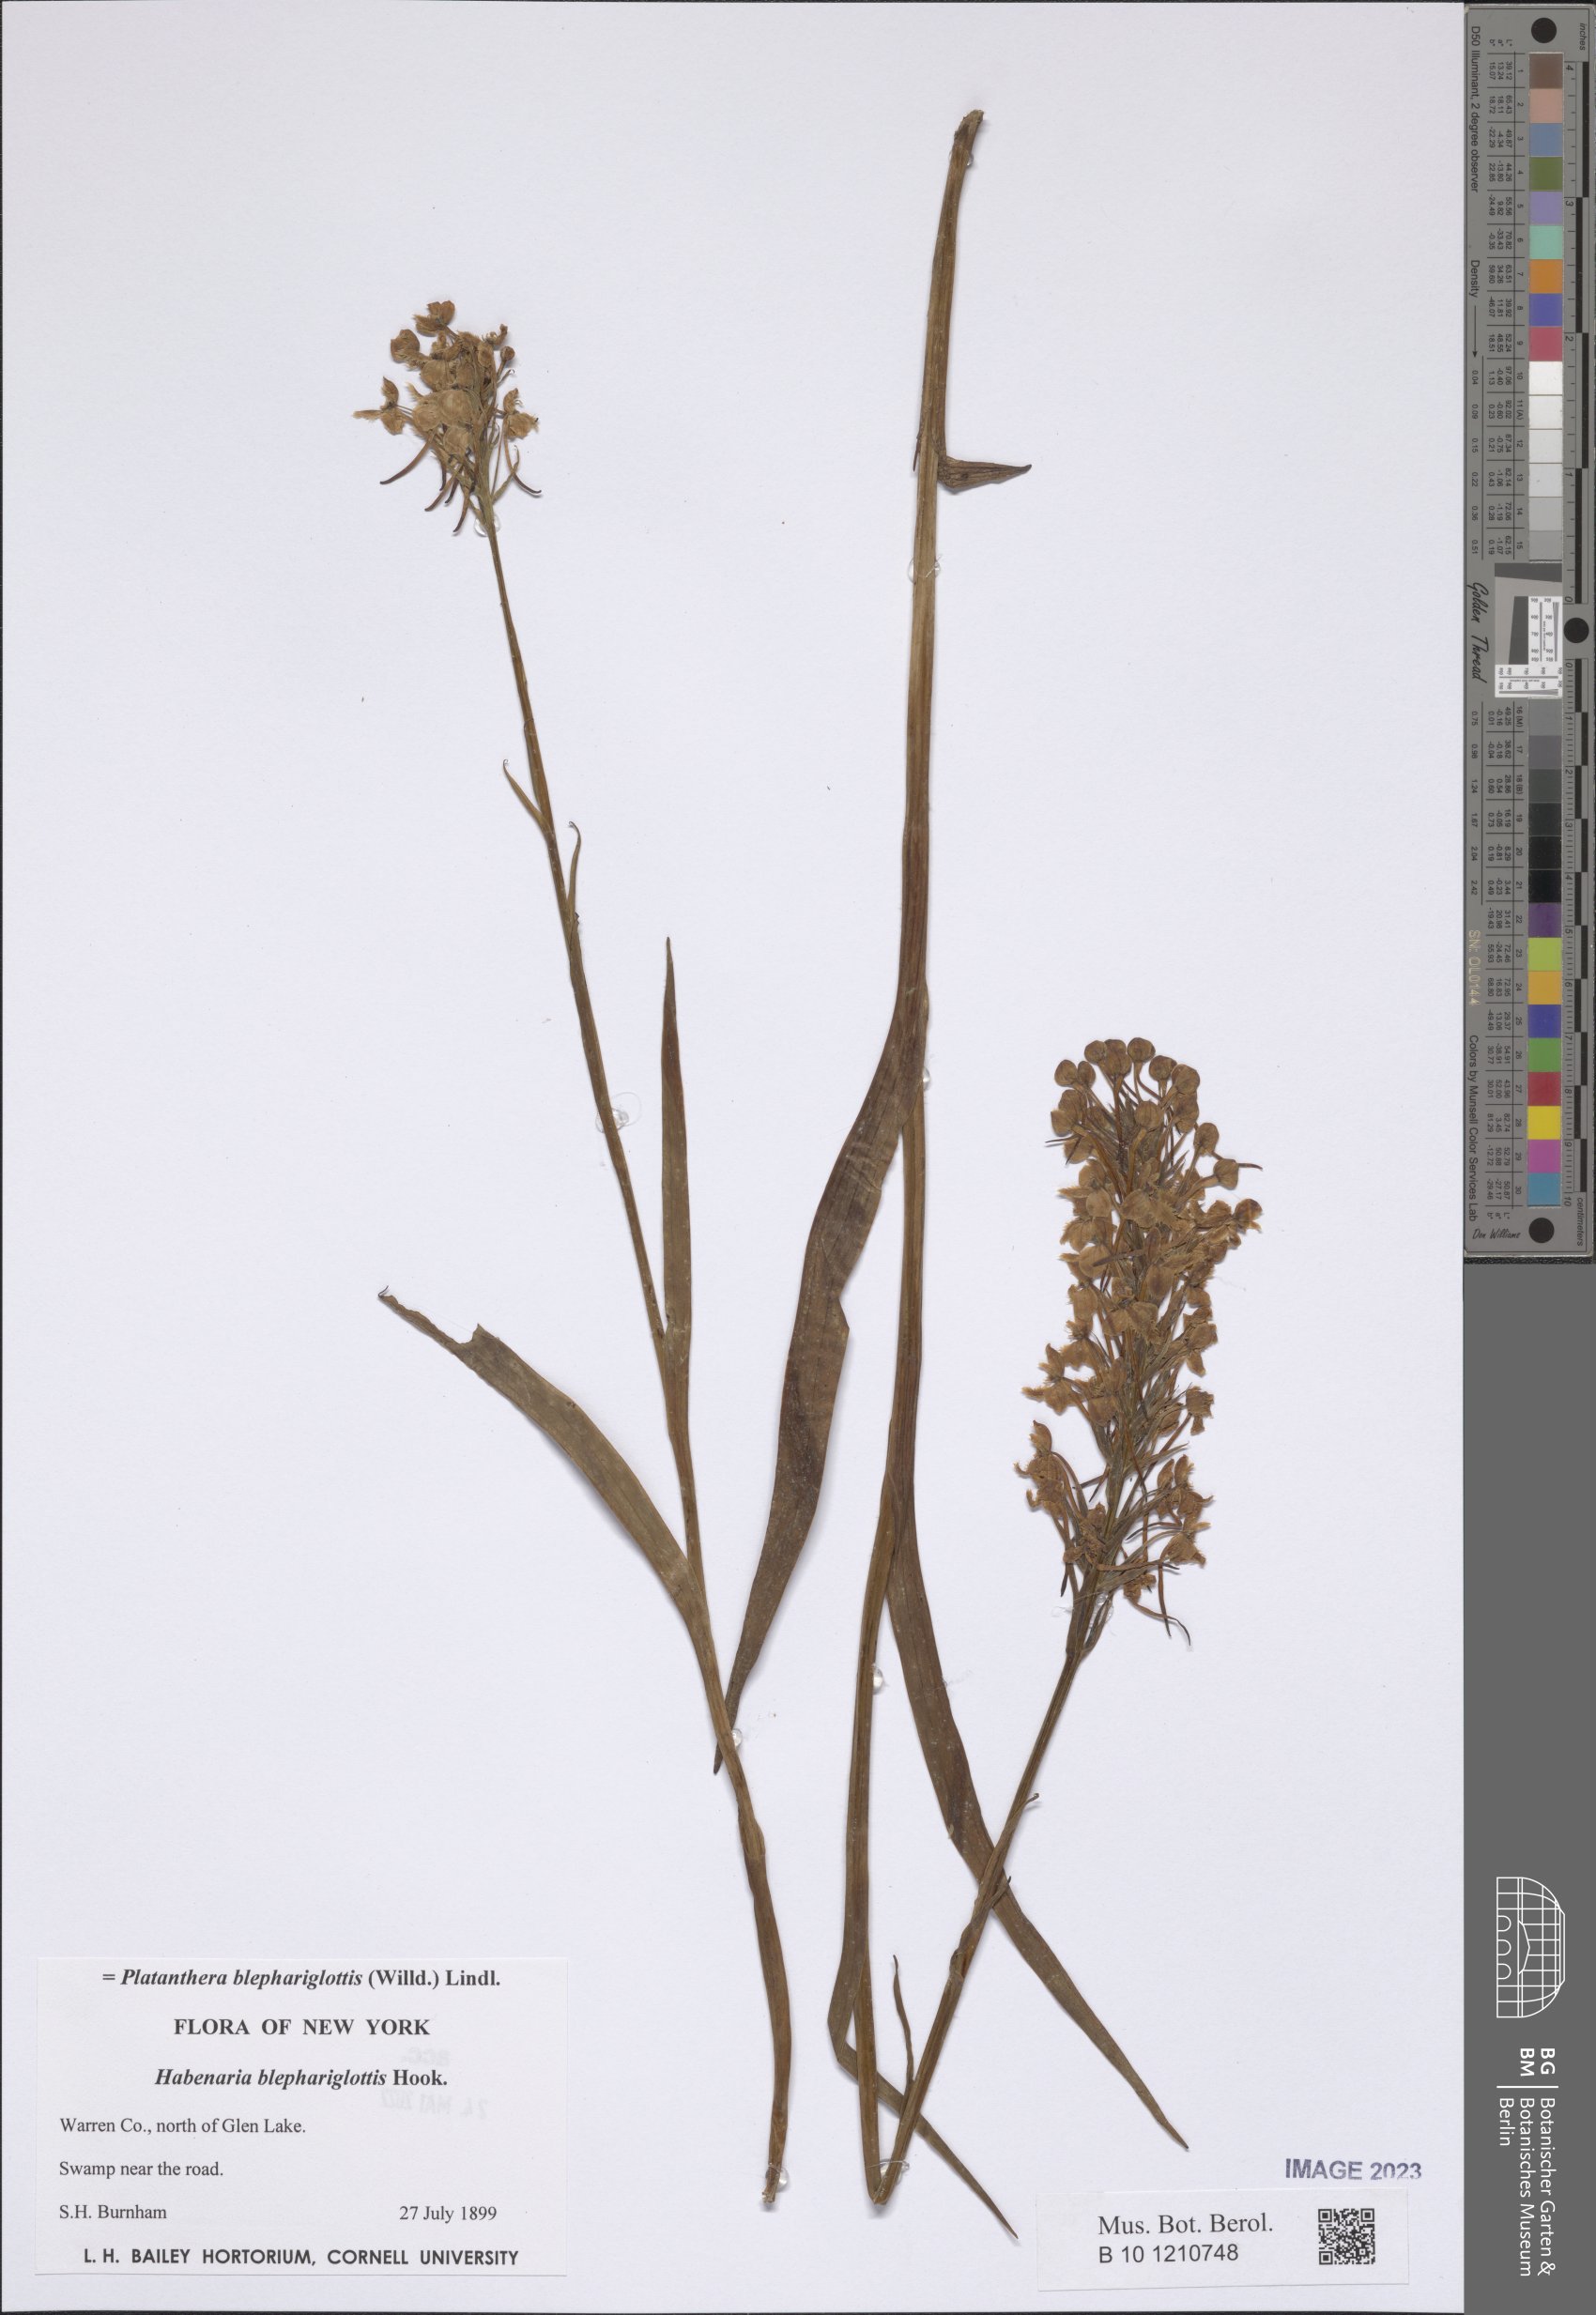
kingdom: Plantae
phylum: Tracheophyta
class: Liliopsida
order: Asparagales
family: Orchidaceae
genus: Platanthera
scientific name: Platanthera blephariglottis
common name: White fringed orchid
